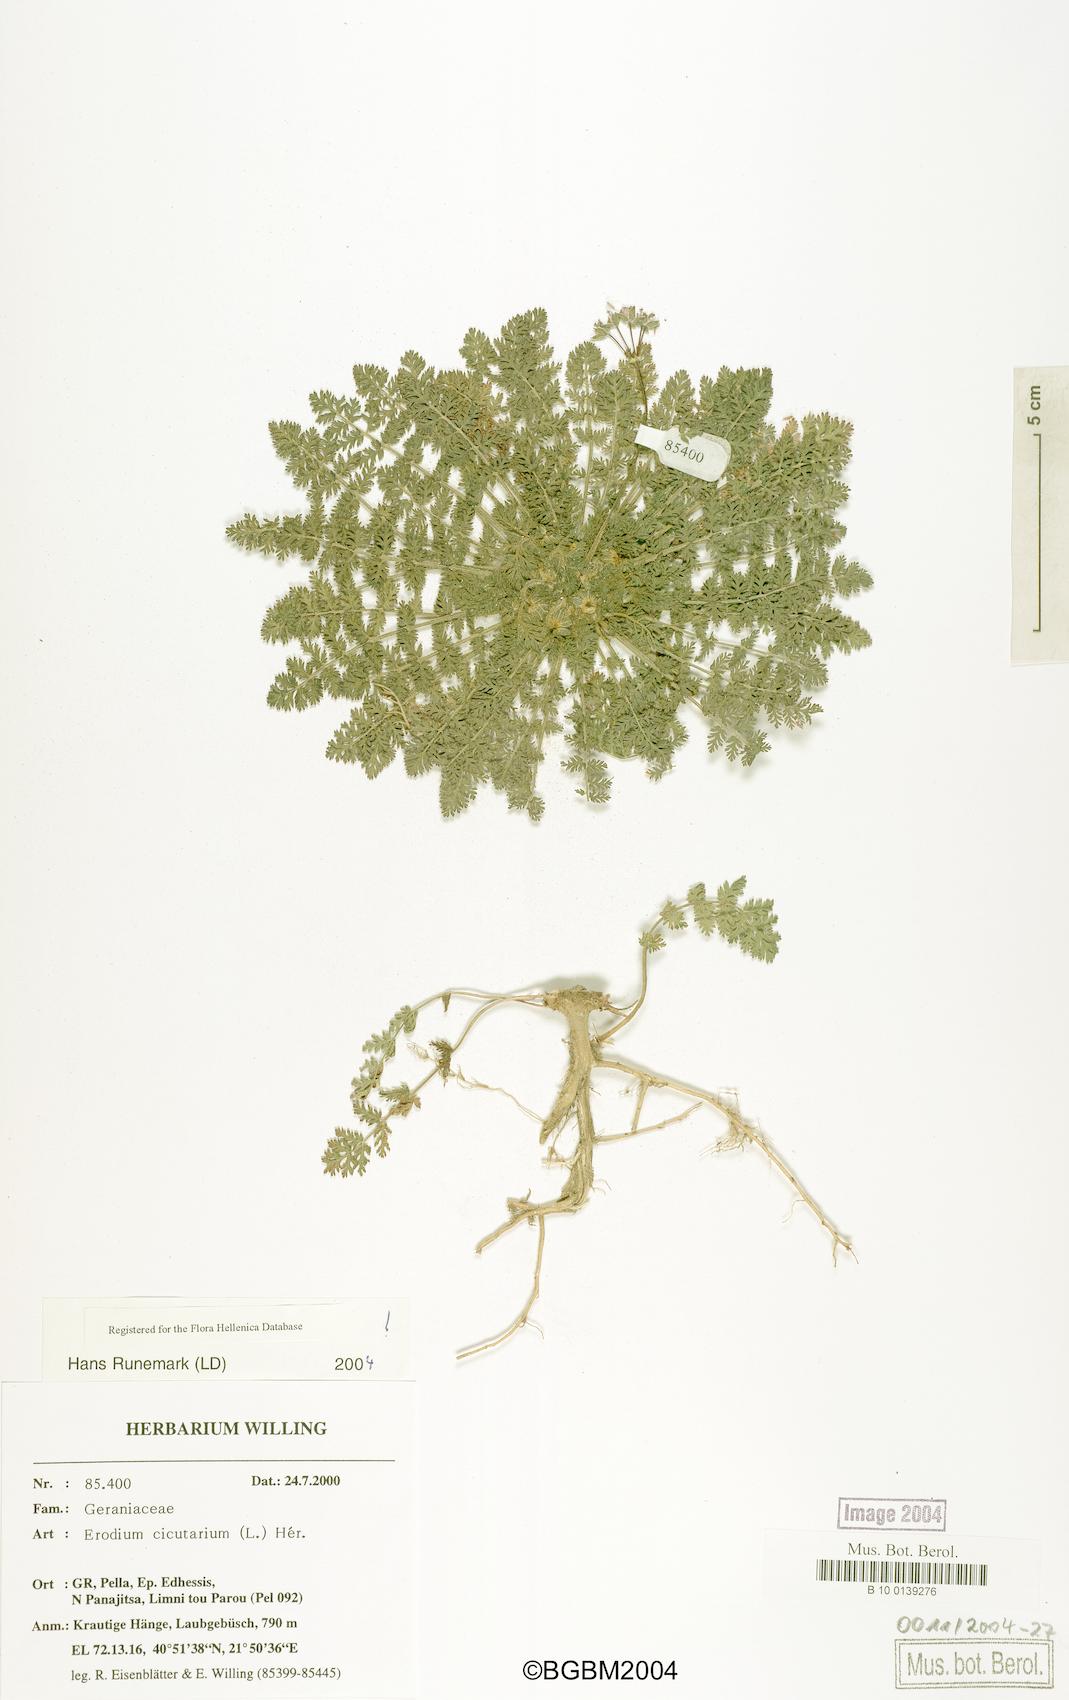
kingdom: Plantae
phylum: Tracheophyta
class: Magnoliopsida
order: Geraniales
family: Geraniaceae
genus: Erodium
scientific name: Erodium cicutarium
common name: Common stork's-bill
